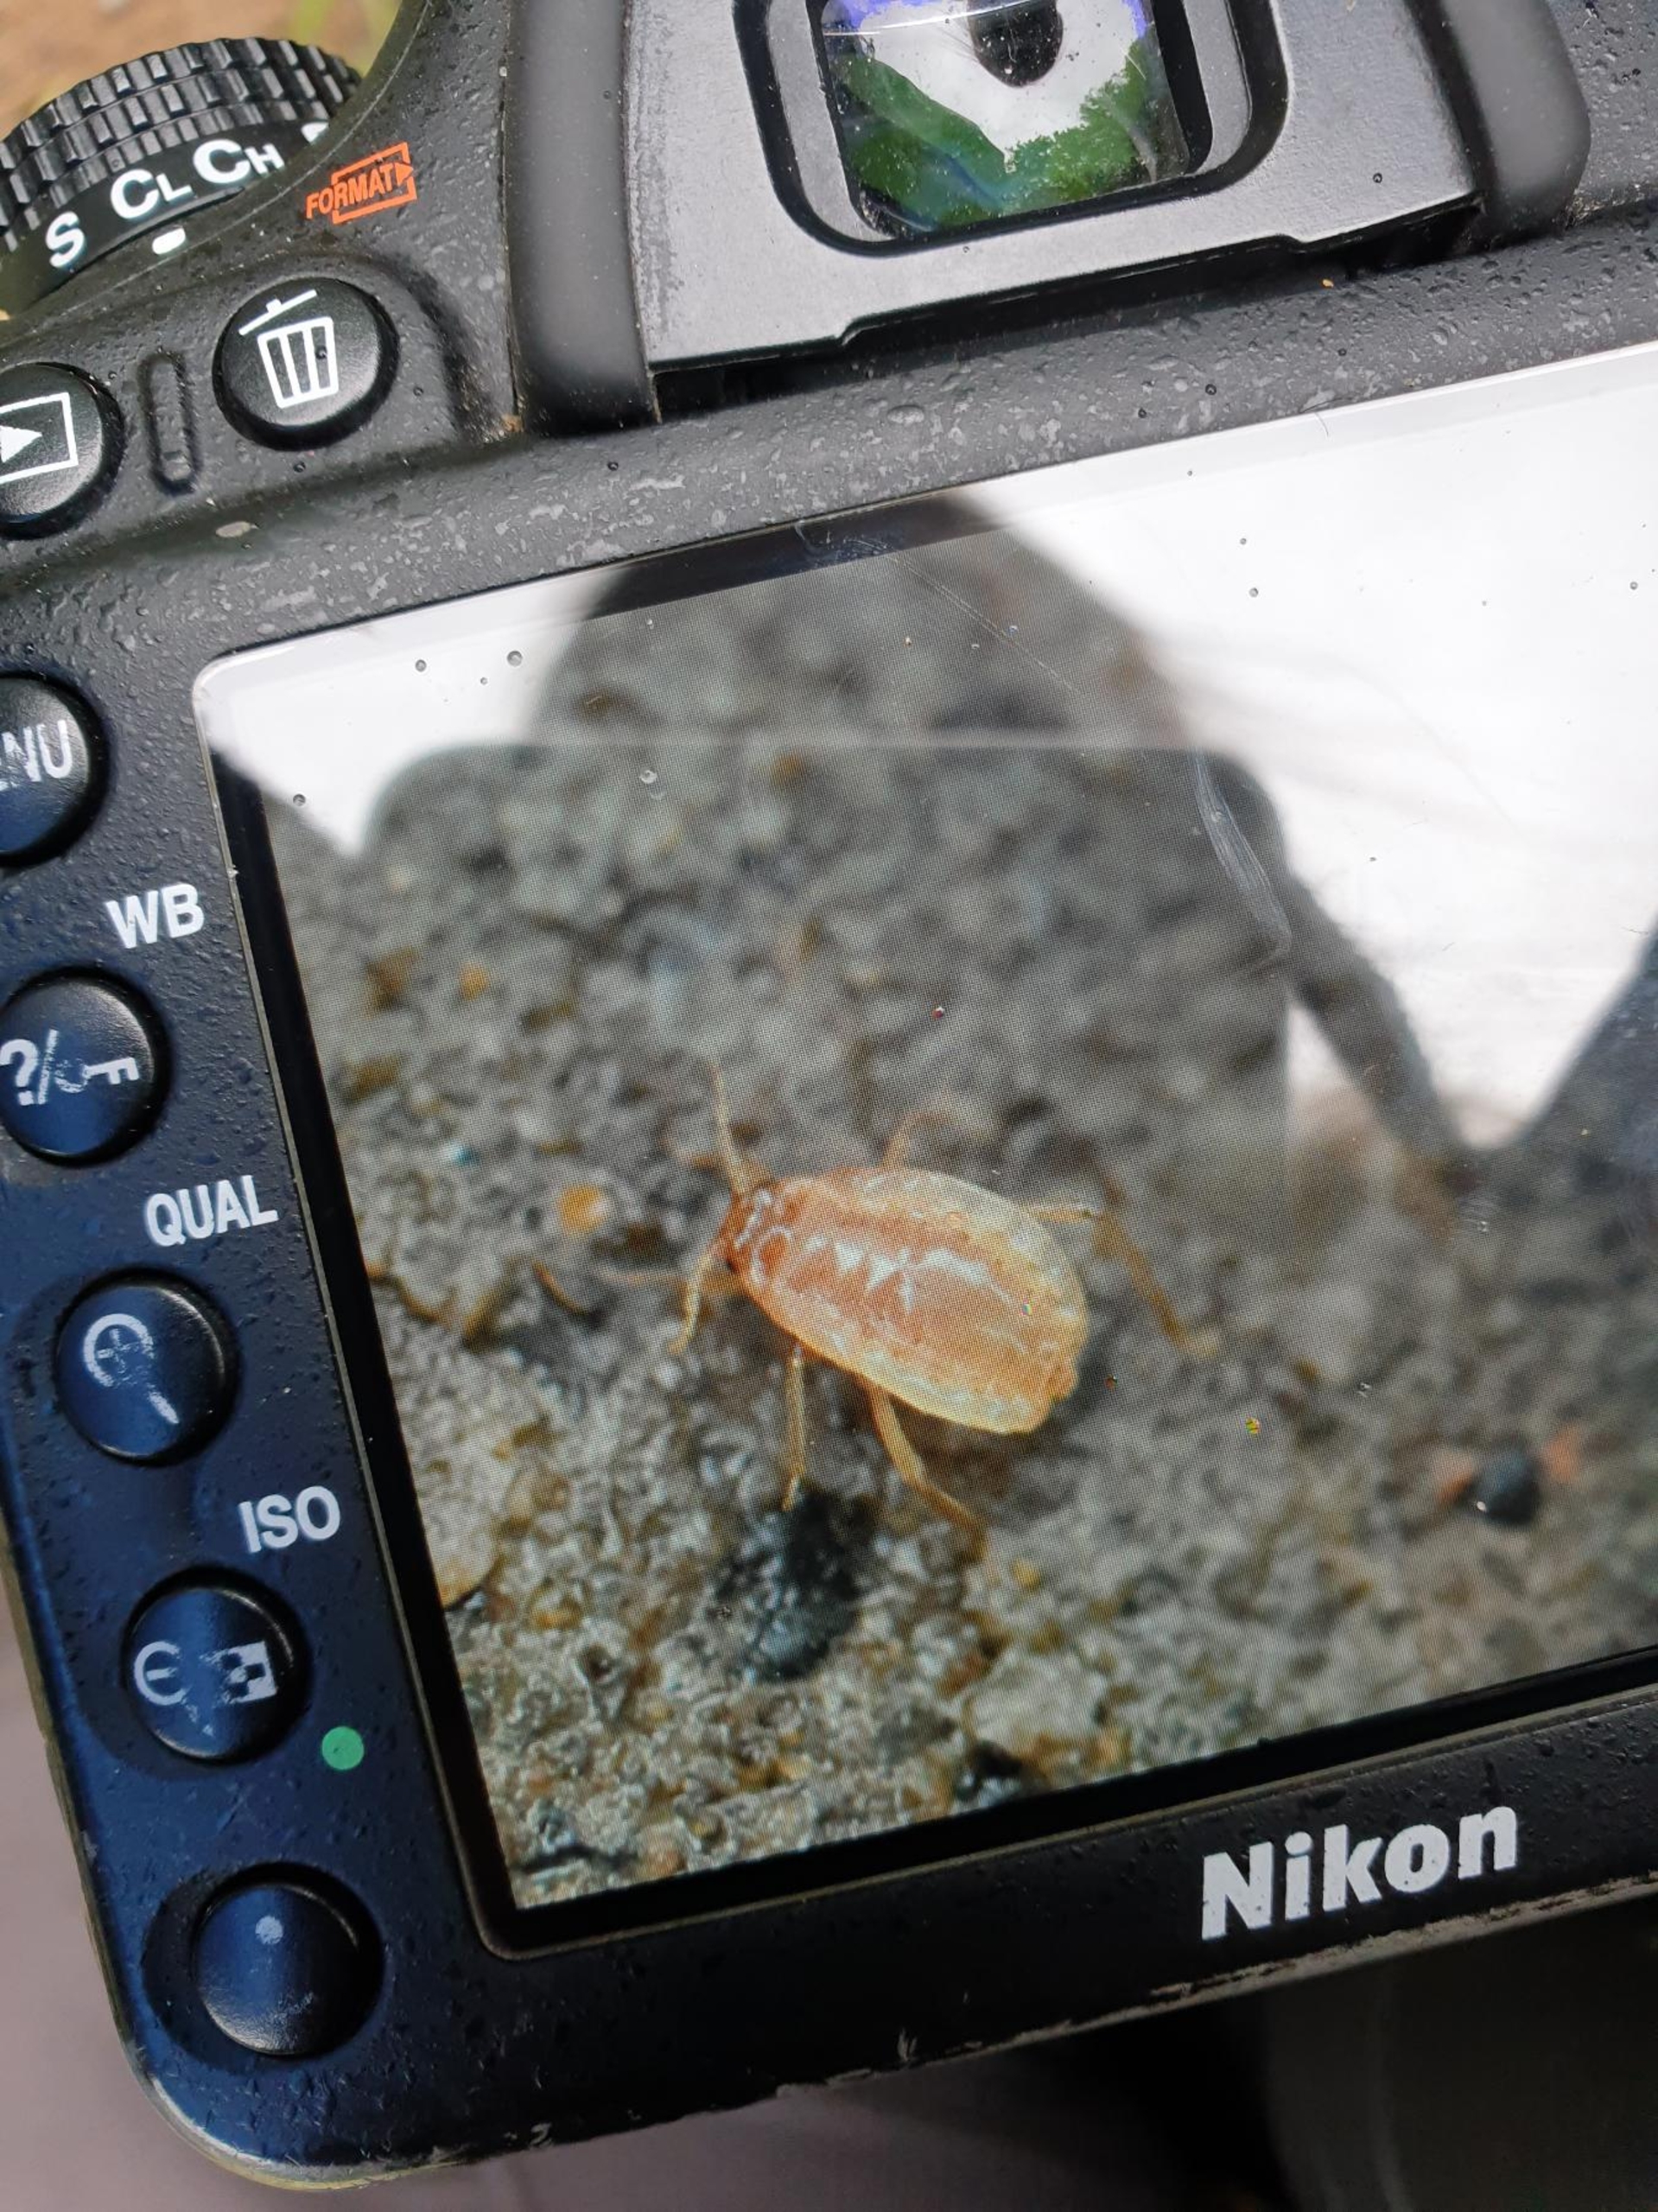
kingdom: Animalia
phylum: Arthropoda
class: Insecta
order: Hemiptera
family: Aphididae
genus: Paracletus
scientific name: Paracletus cimiciformis
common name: Vampyrrodlus
